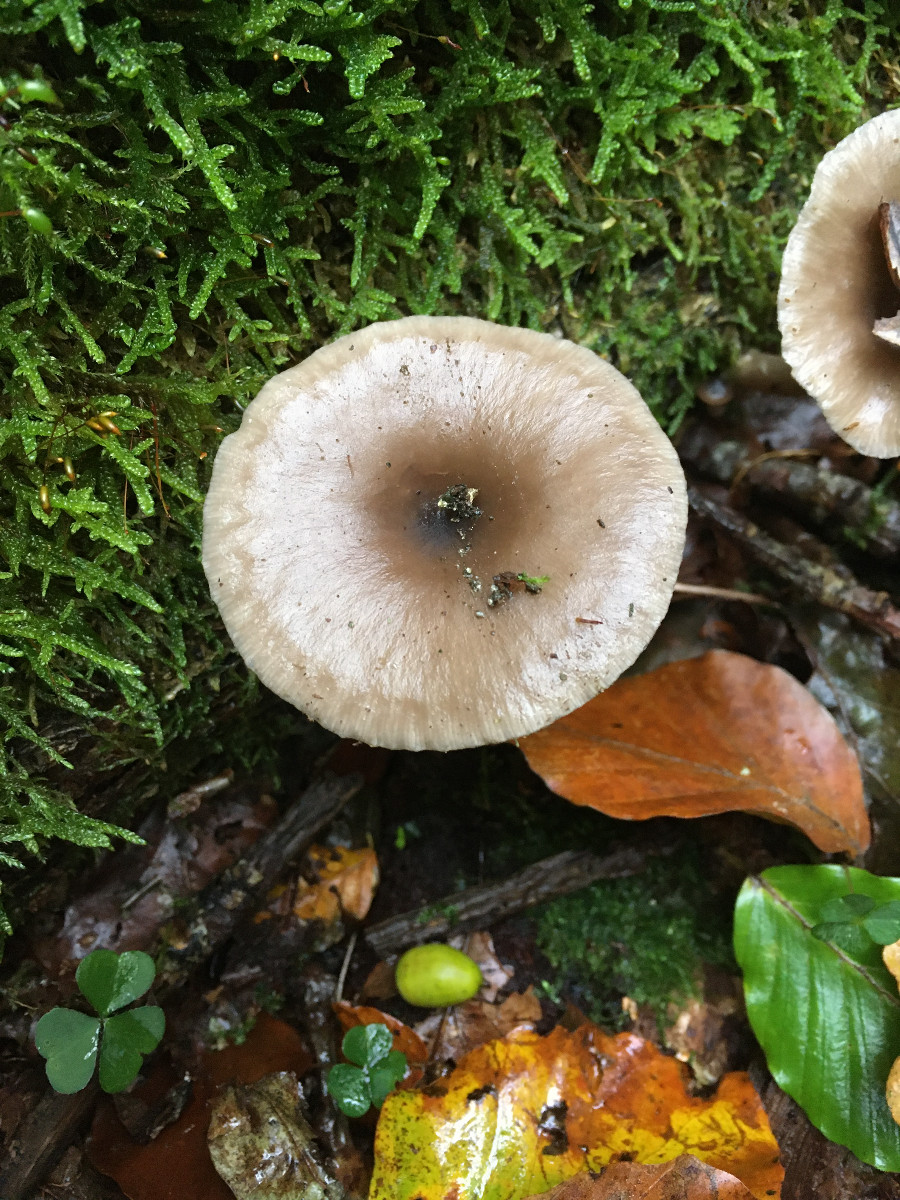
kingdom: Fungi
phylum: Basidiomycota
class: Agaricomycetes
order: Agaricales
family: Pseudoclitocybaceae
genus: Pseudoclitocybe
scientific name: Pseudoclitocybe cyathiformis
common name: almindelig bægertragthat
